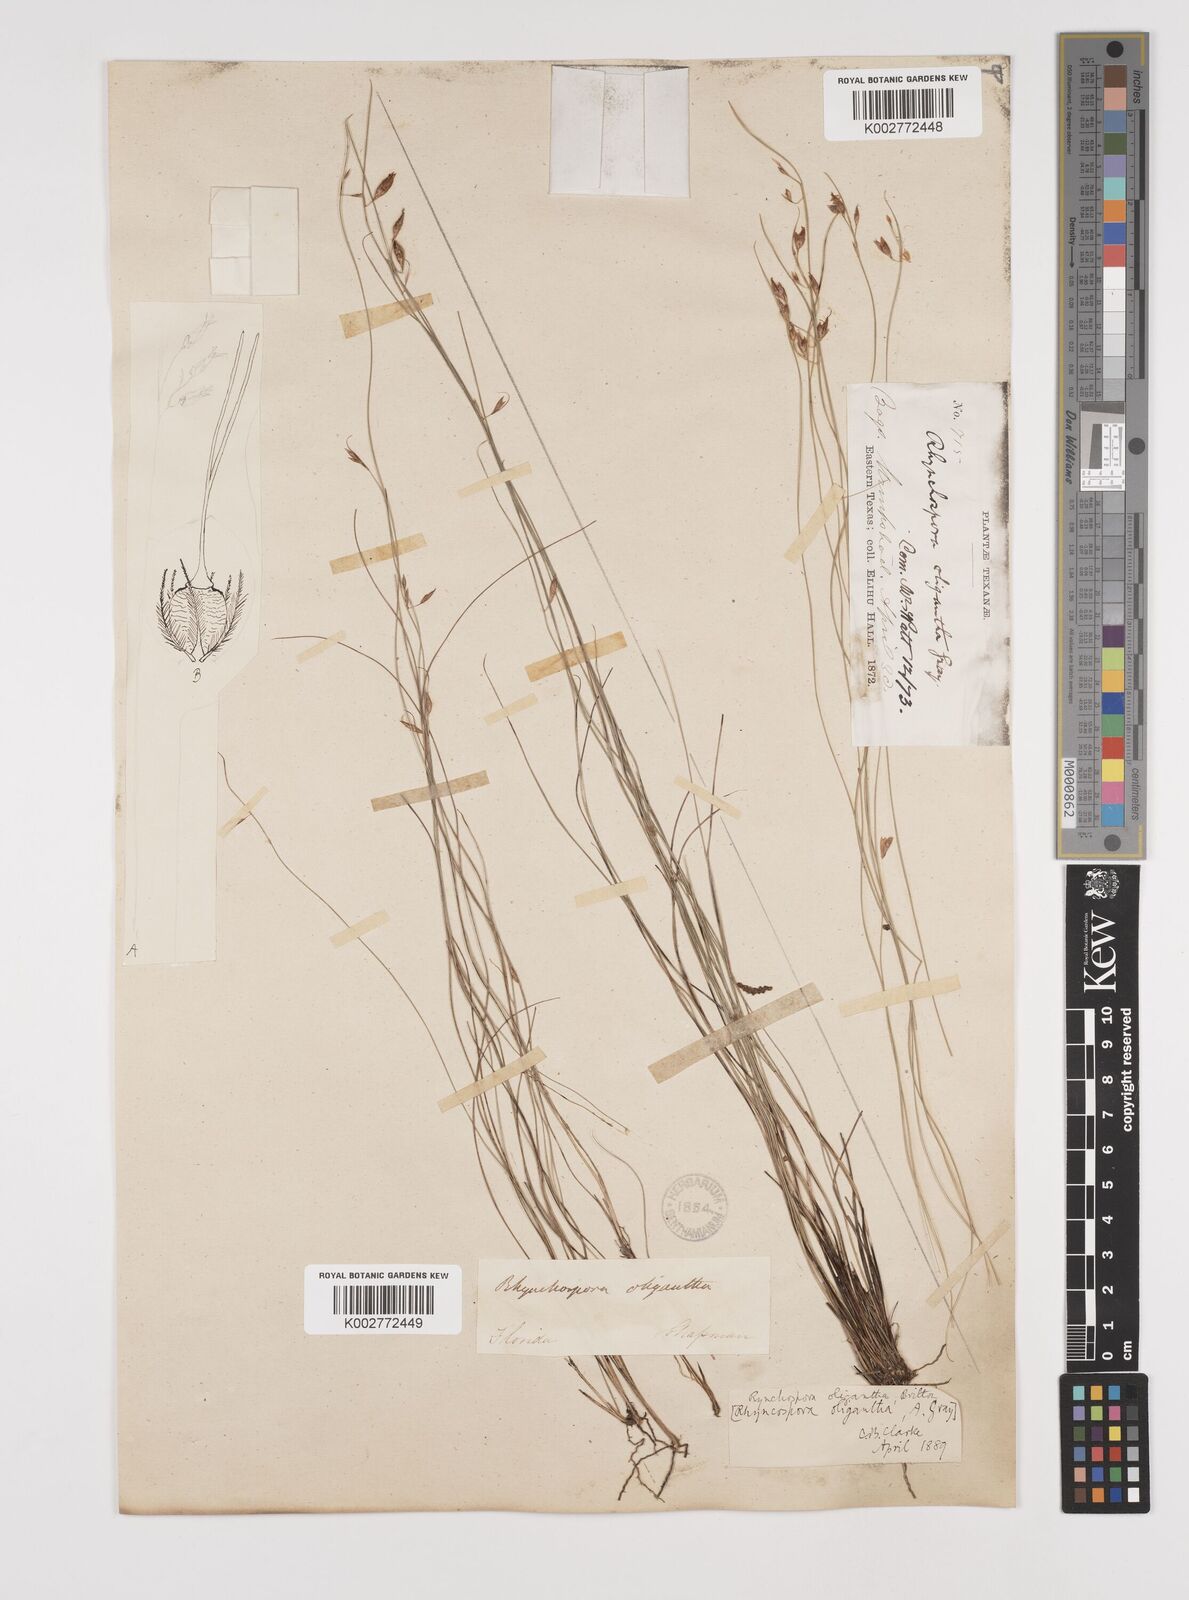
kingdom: Plantae
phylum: Tracheophyta
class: Liliopsida
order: Poales
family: Cyperaceae
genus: Rhynchospora
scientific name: Rhynchospora oligantha
